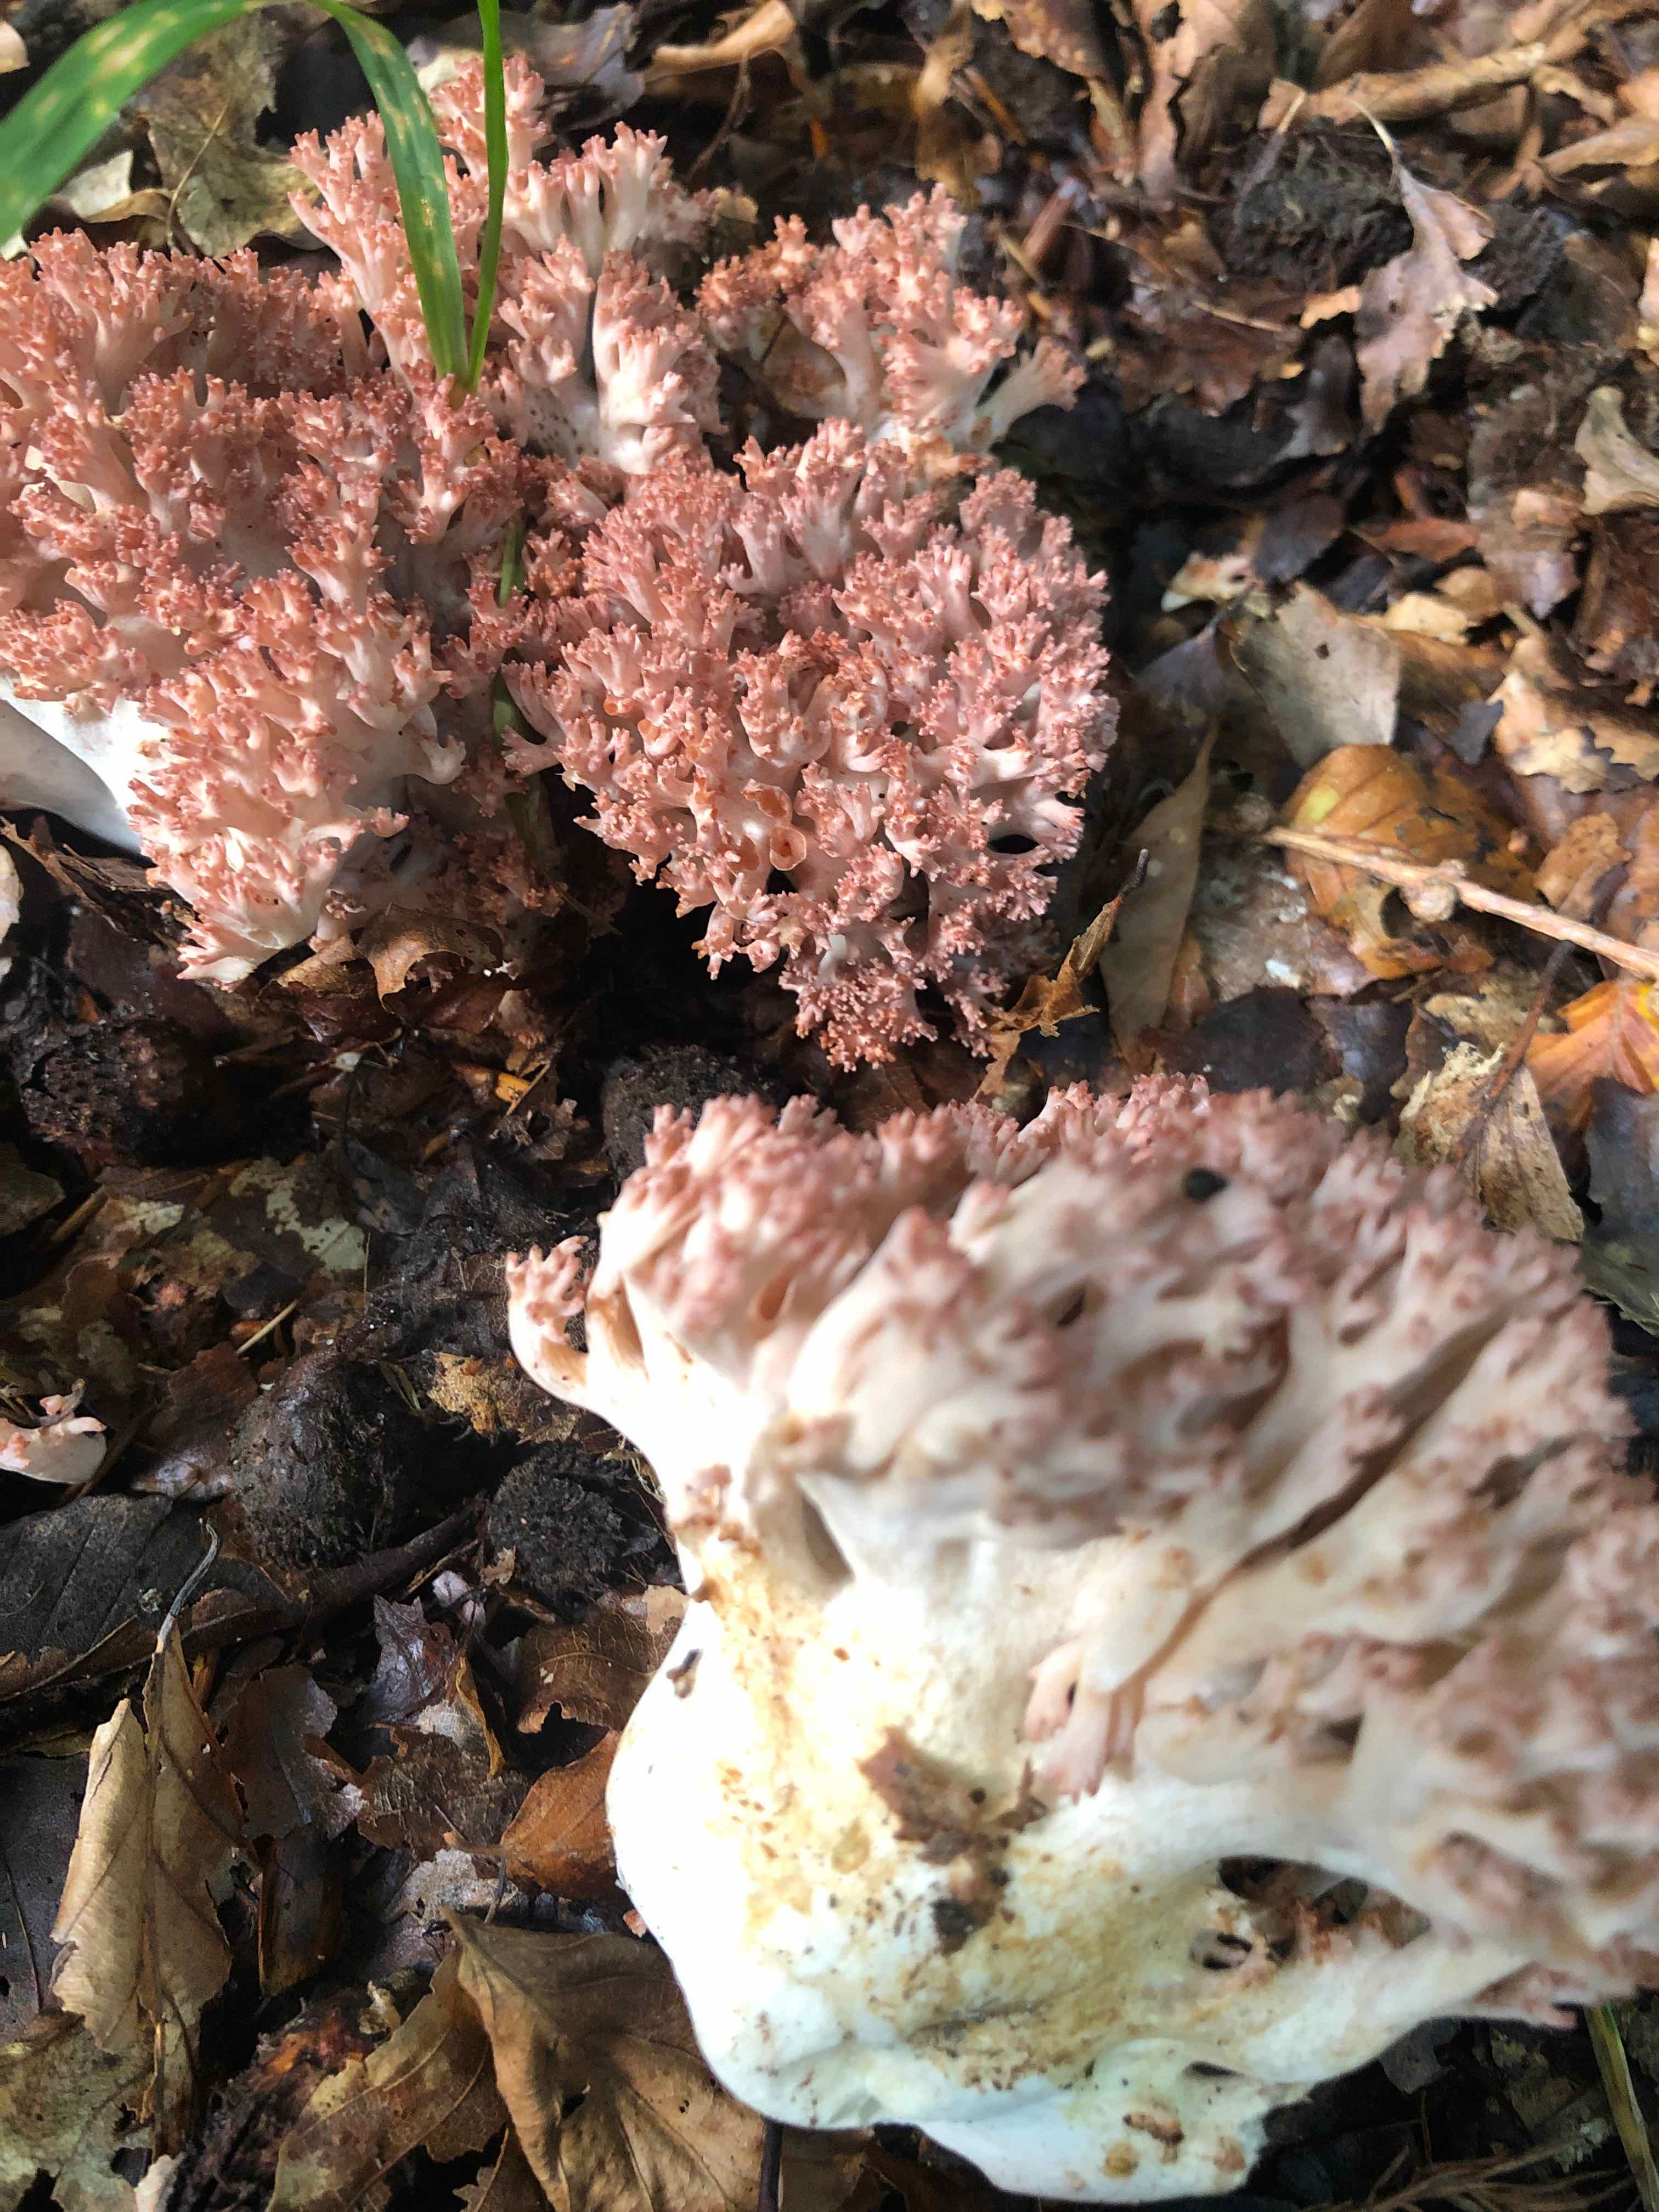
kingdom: Fungi
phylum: Basidiomycota
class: Agaricomycetes
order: Gomphales
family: Gomphaceae
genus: Ramaria
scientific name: Ramaria botrytis
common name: drue-koralsvamp
